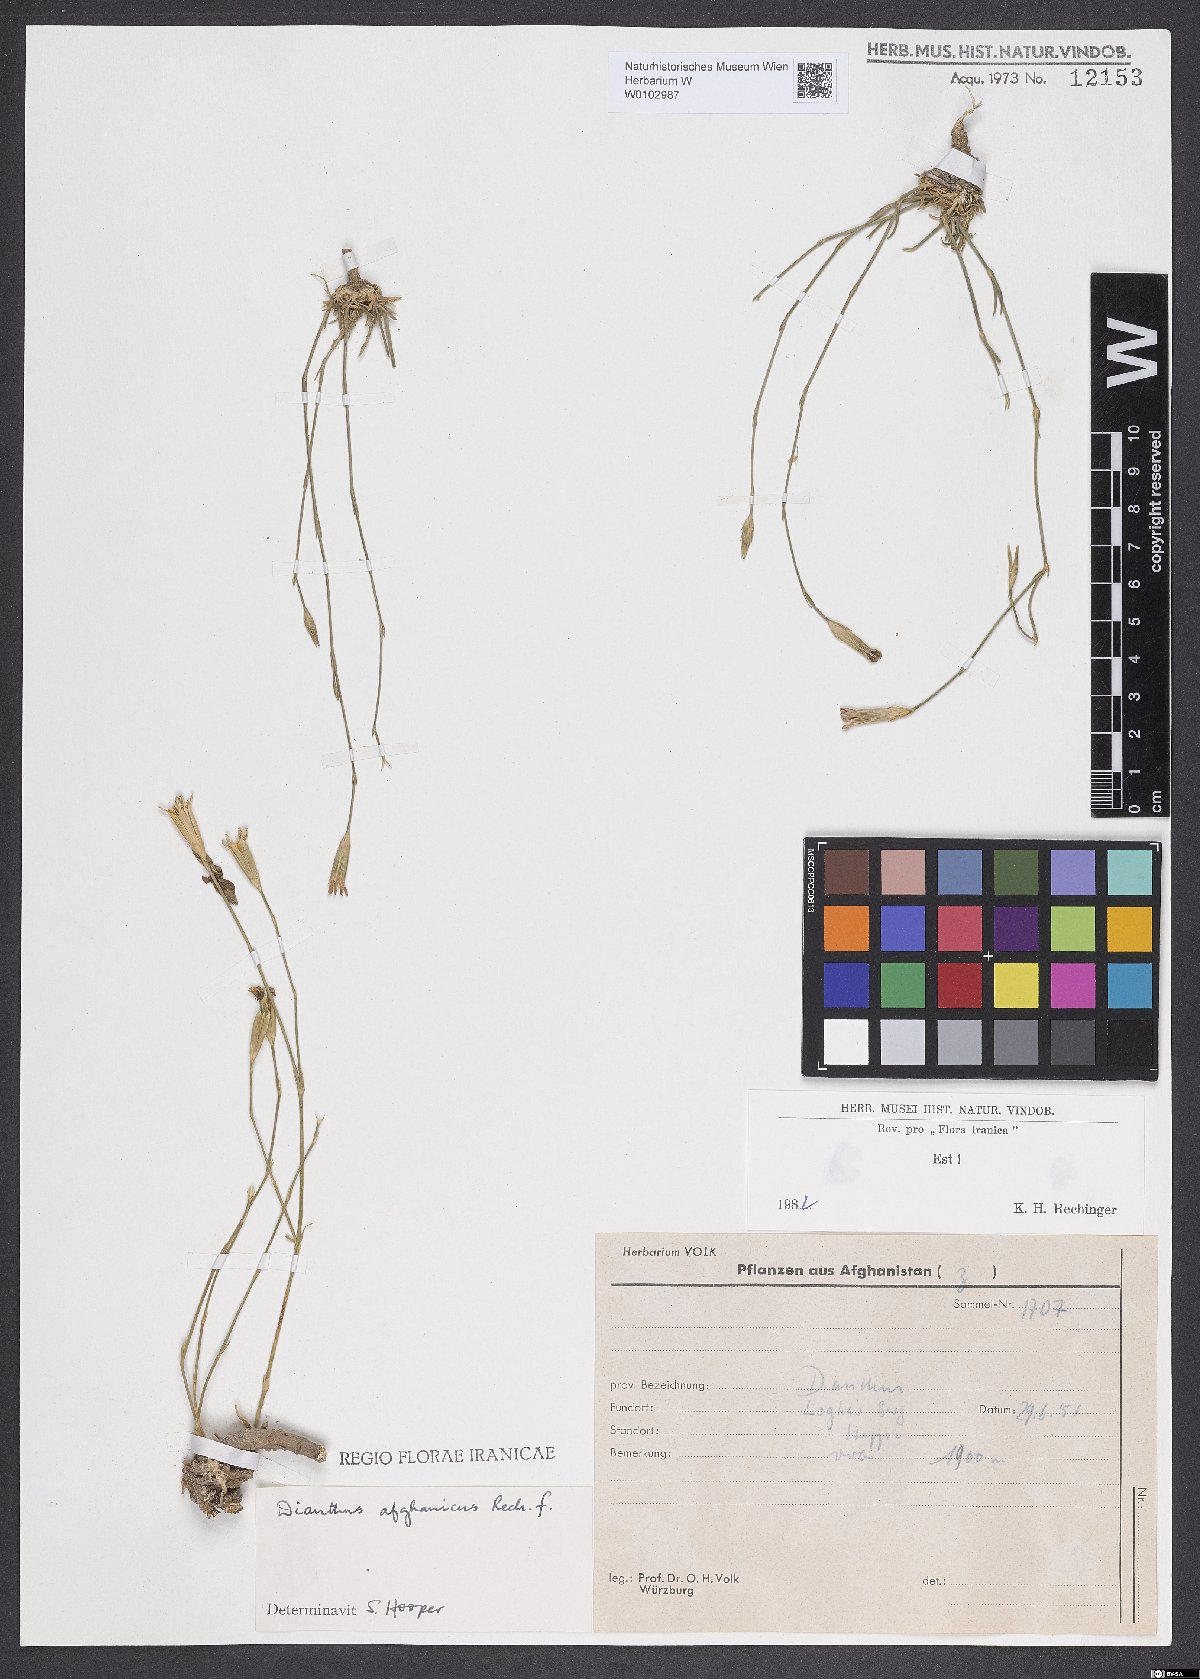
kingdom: Plantae
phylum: Tracheophyta
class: Magnoliopsida
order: Caryophyllales
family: Caryophyllaceae
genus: Dianthus
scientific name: Dianthus afghanicus
